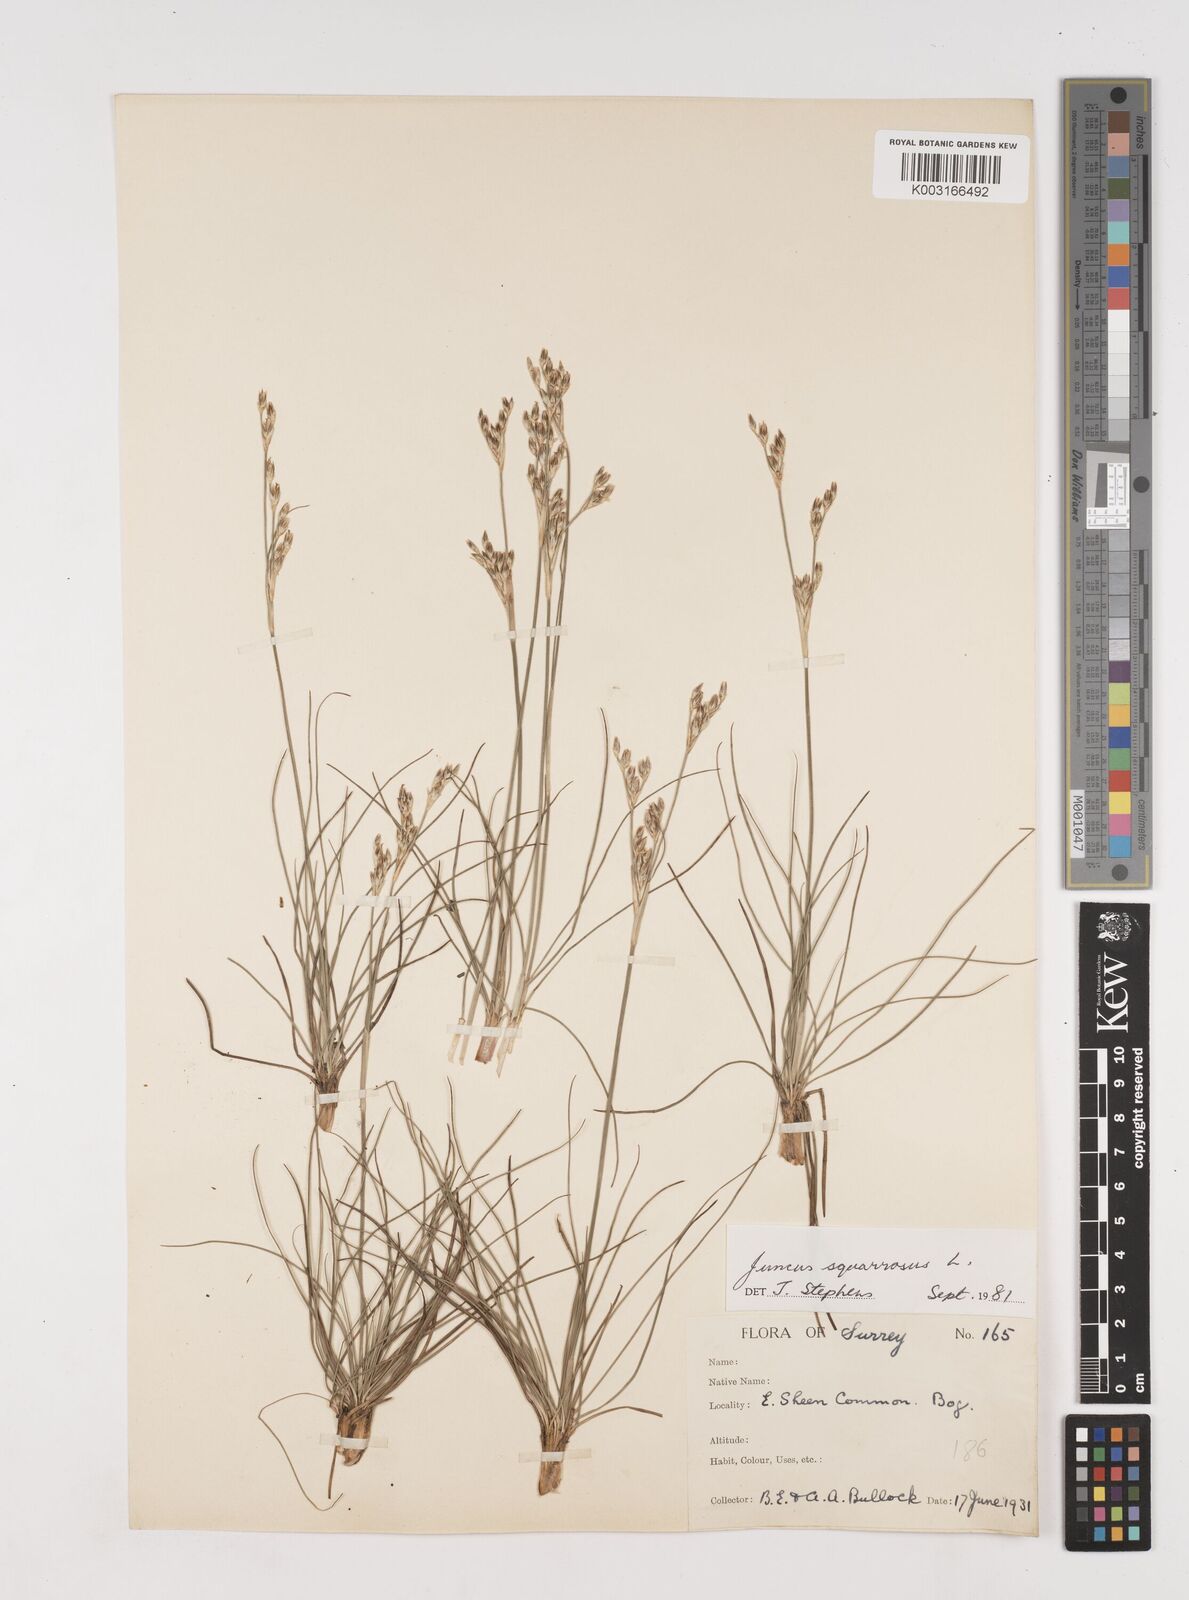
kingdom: Plantae
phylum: Tracheophyta
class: Liliopsida
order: Poales
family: Juncaceae
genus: Juncus
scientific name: Juncus squarrosus
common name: Heath rush
